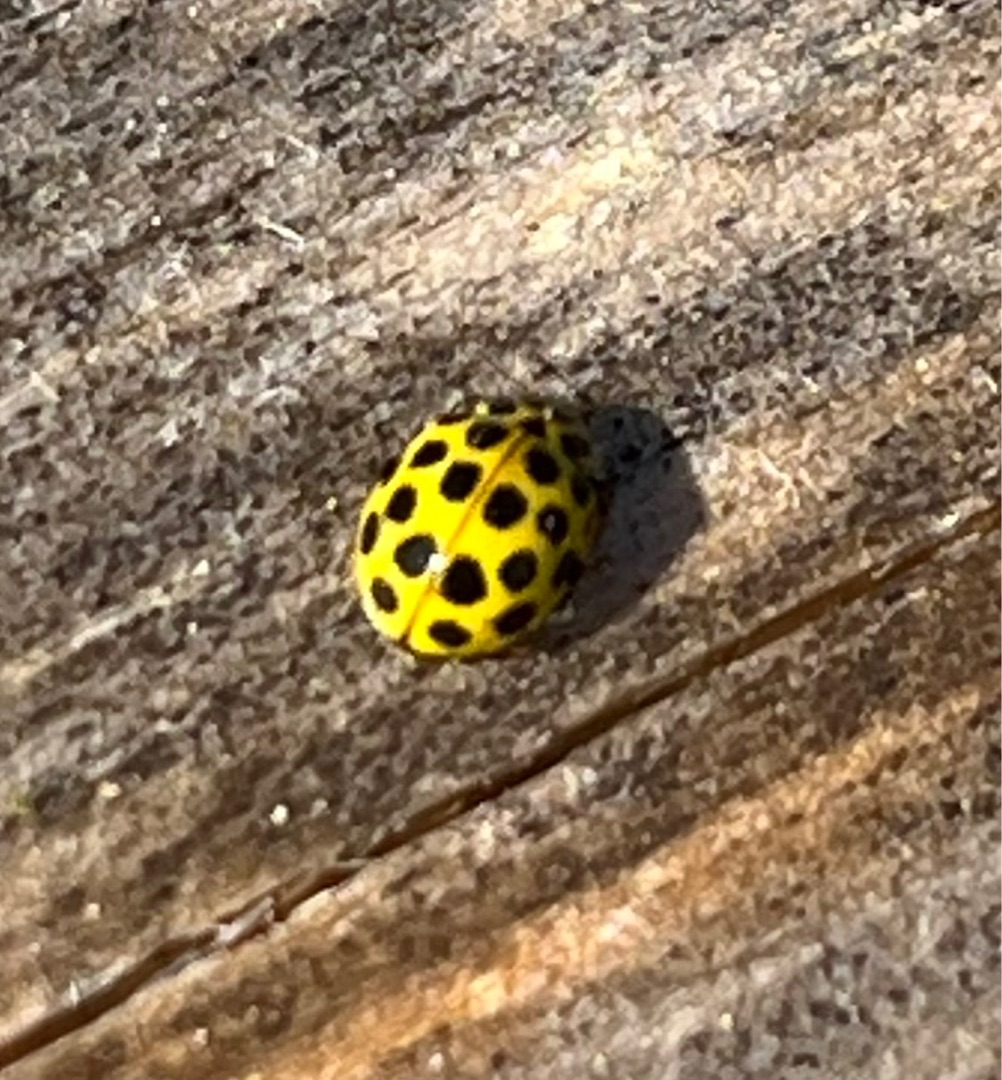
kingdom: Animalia
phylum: Arthropoda
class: Insecta
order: Coleoptera
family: Coccinellidae
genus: Psyllobora
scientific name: Psyllobora vigintiduopunctata
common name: Toogtyveplettet mariehøne
